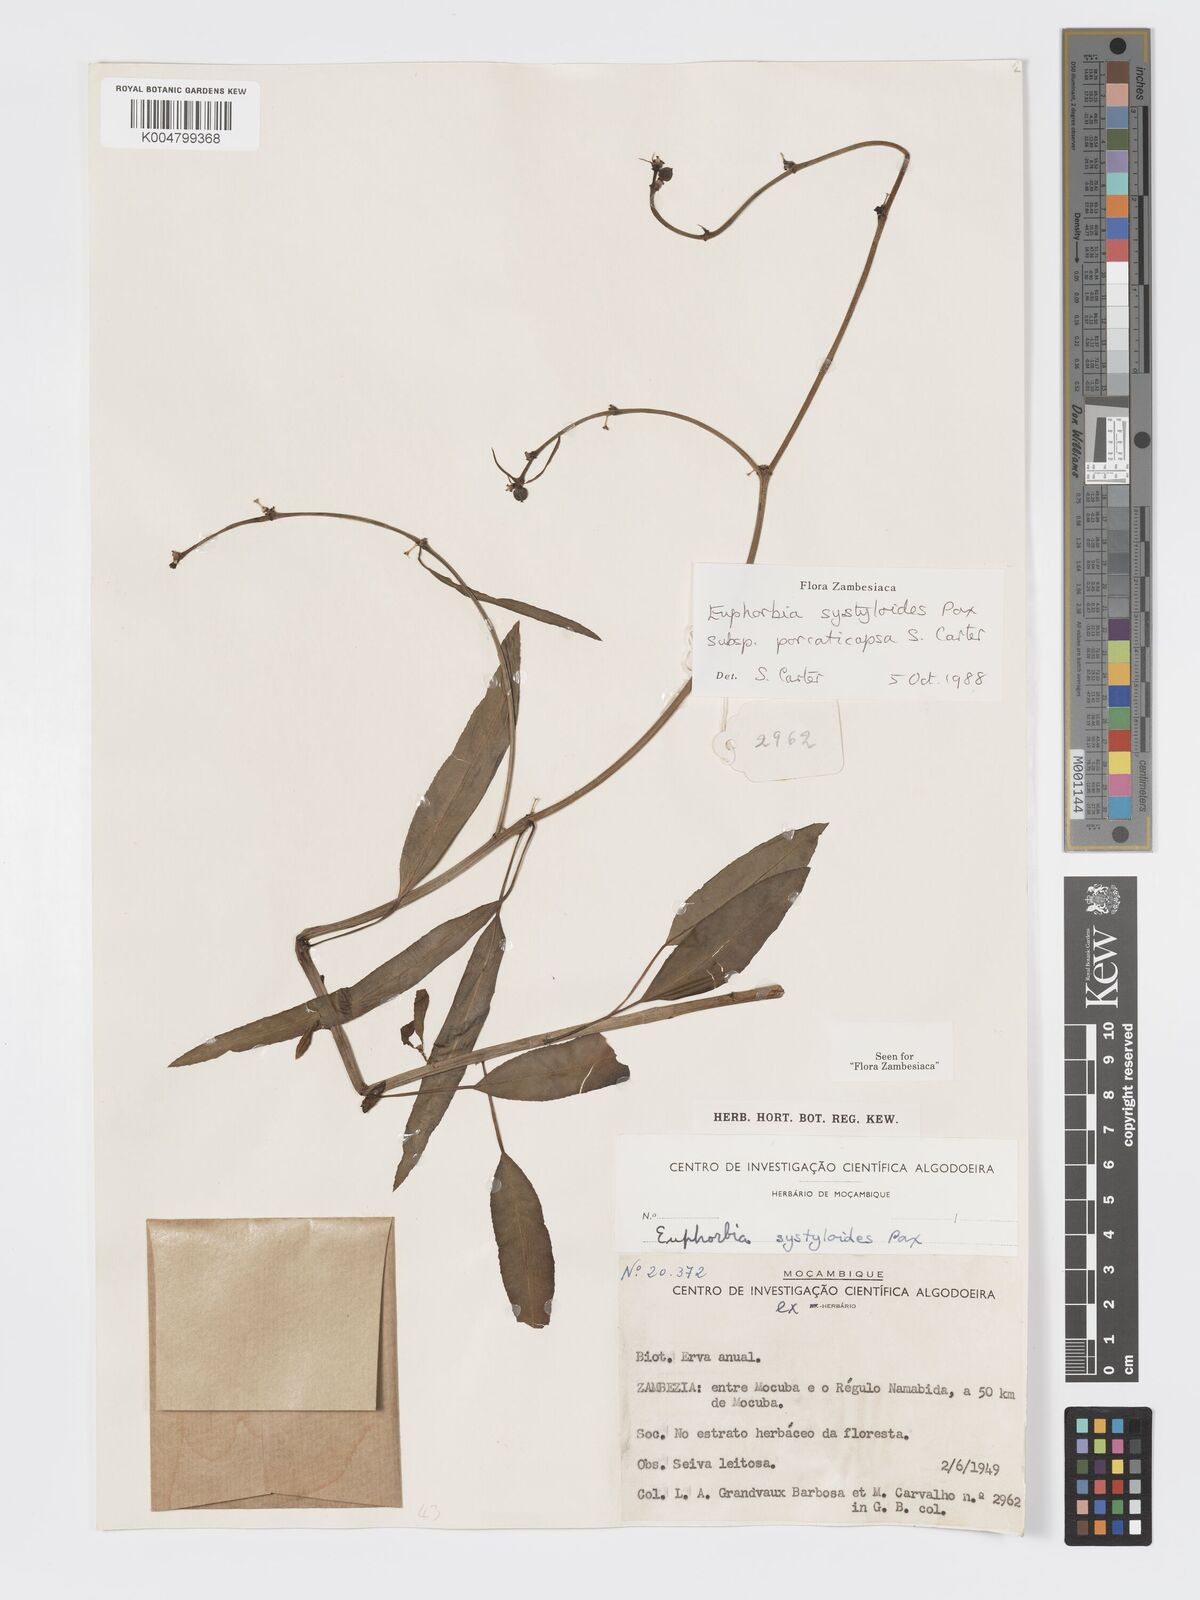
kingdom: Plantae
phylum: Tracheophyta
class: Magnoliopsida
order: Malpighiales
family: Euphorbiaceae
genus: Euphorbia
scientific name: Euphorbia systyloides
